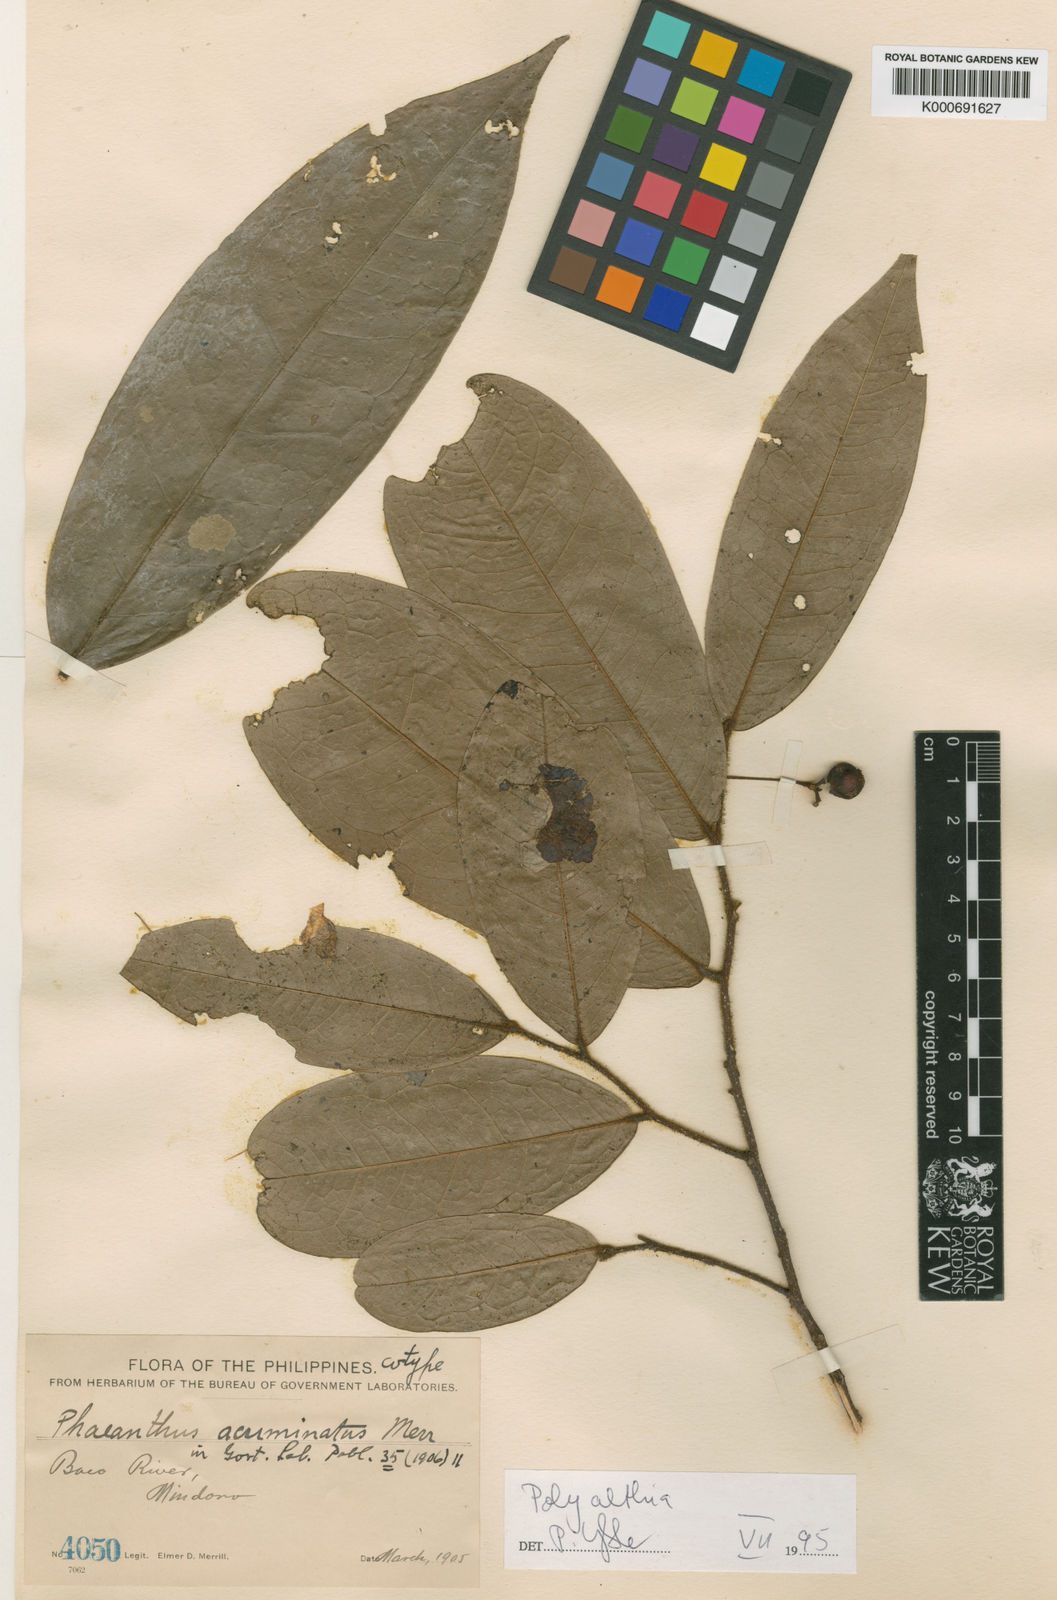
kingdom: Plantae
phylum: Tracheophyta
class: Magnoliopsida
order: Magnoliales
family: Annonaceae
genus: Polyalthia
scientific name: Polyalthia mindorensis
